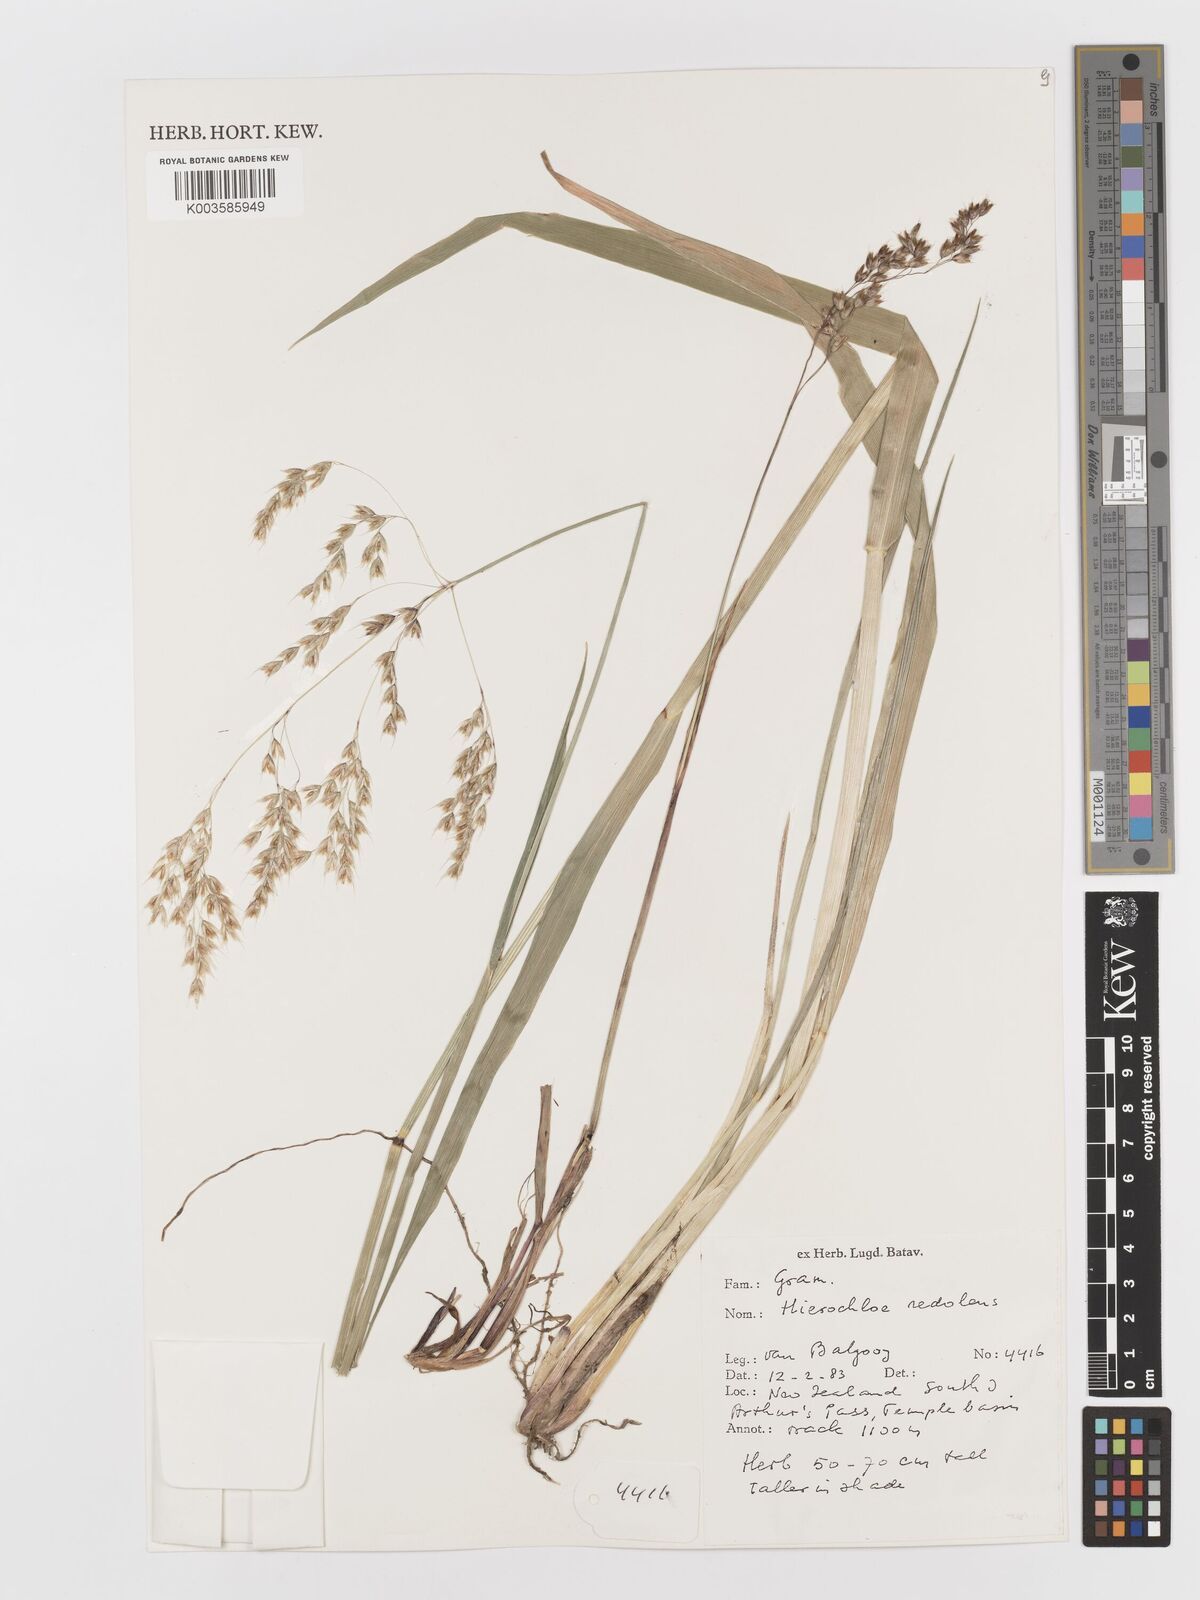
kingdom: Plantae
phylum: Tracheophyta
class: Liliopsida
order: Poales
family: Poaceae
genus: Anthoxanthum
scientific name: Anthoxanthum redolens
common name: Sweet holy grass
